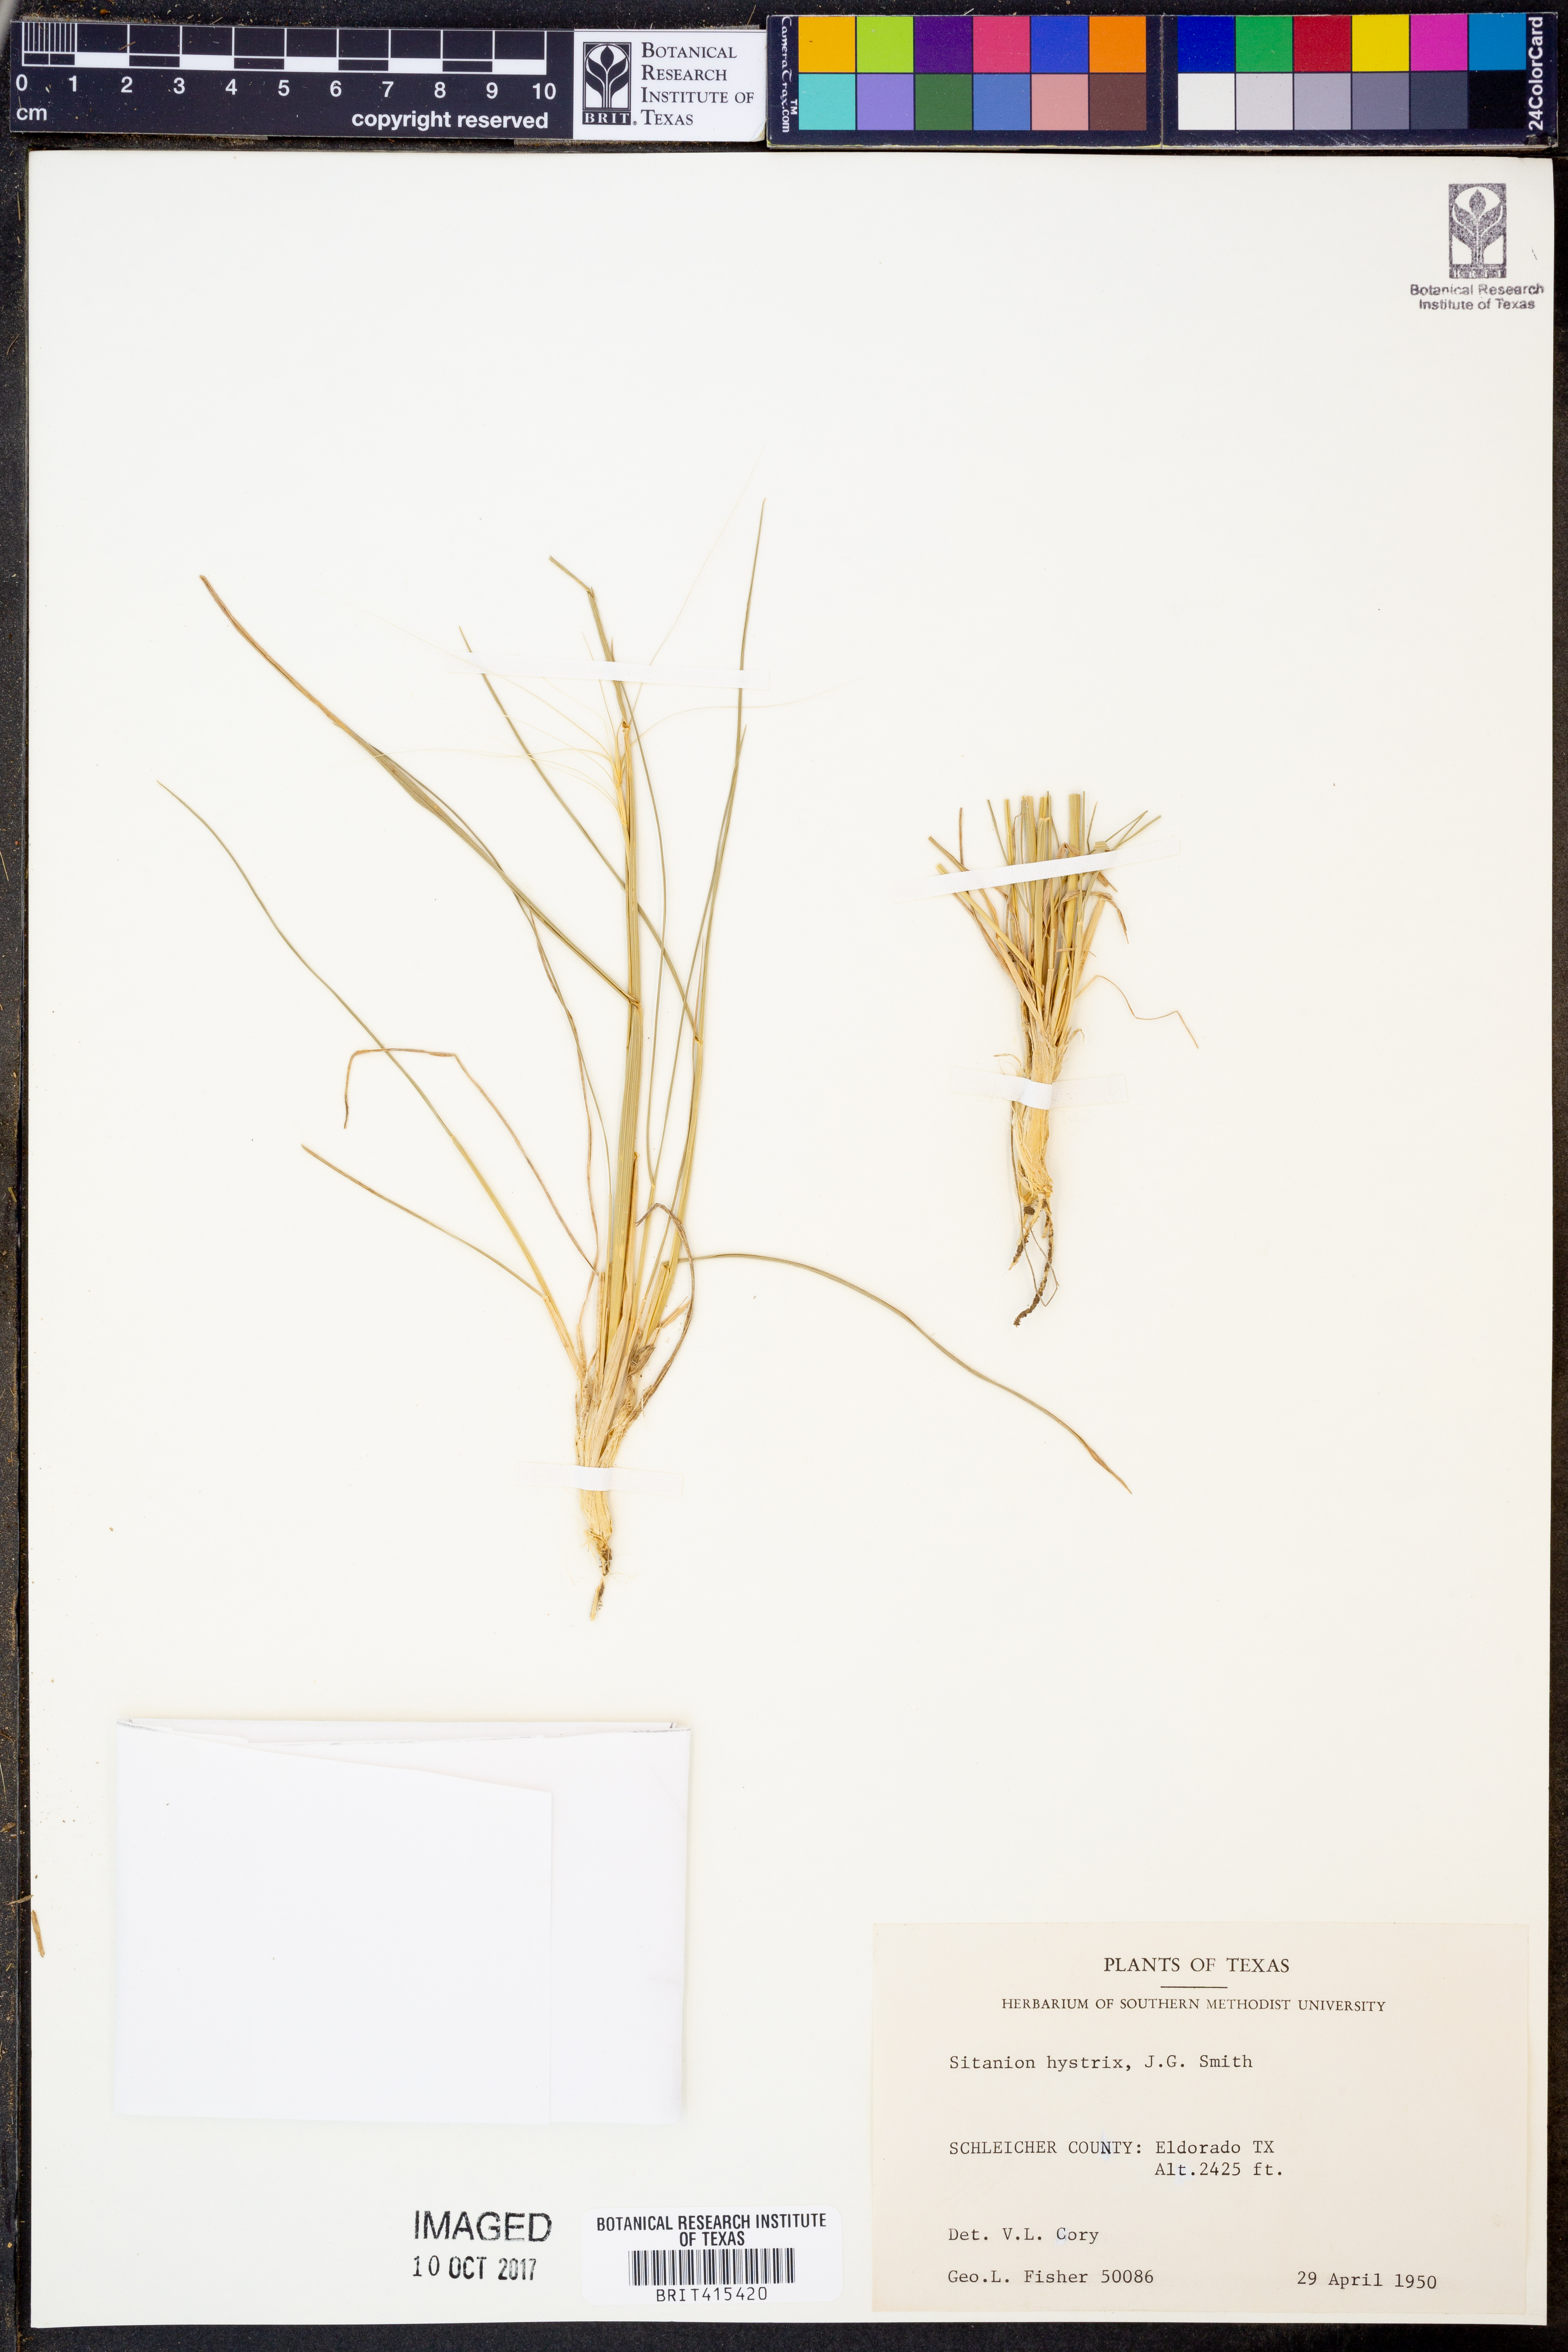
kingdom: Plantae
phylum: Tracheophyta
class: Liliopsida
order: Poales
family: Poaceae
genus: Elymus
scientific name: Elymus elymoides
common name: Bottlebrush squirreltail
